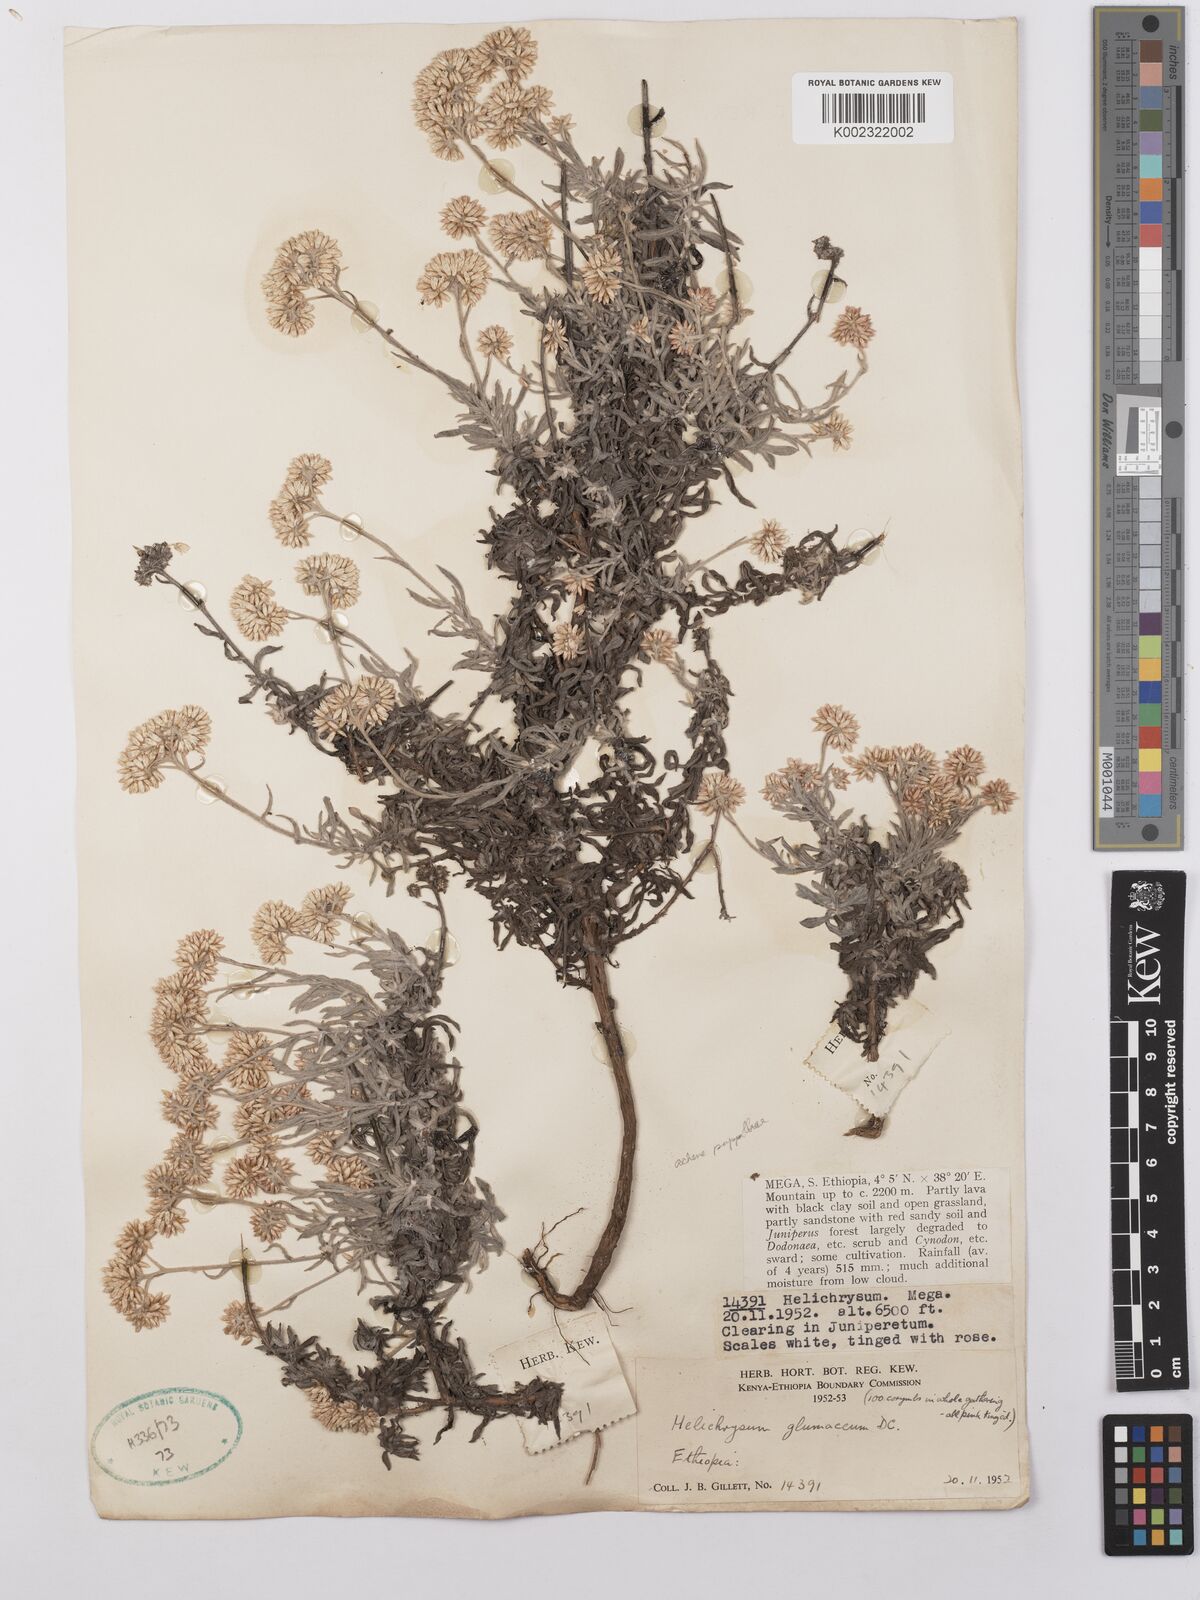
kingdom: Plantae
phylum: Tracheophyta
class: Magnoliopsida
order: Asterales
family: Asteraceae
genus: Helichrysum
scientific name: Helichrysum glumaceum
